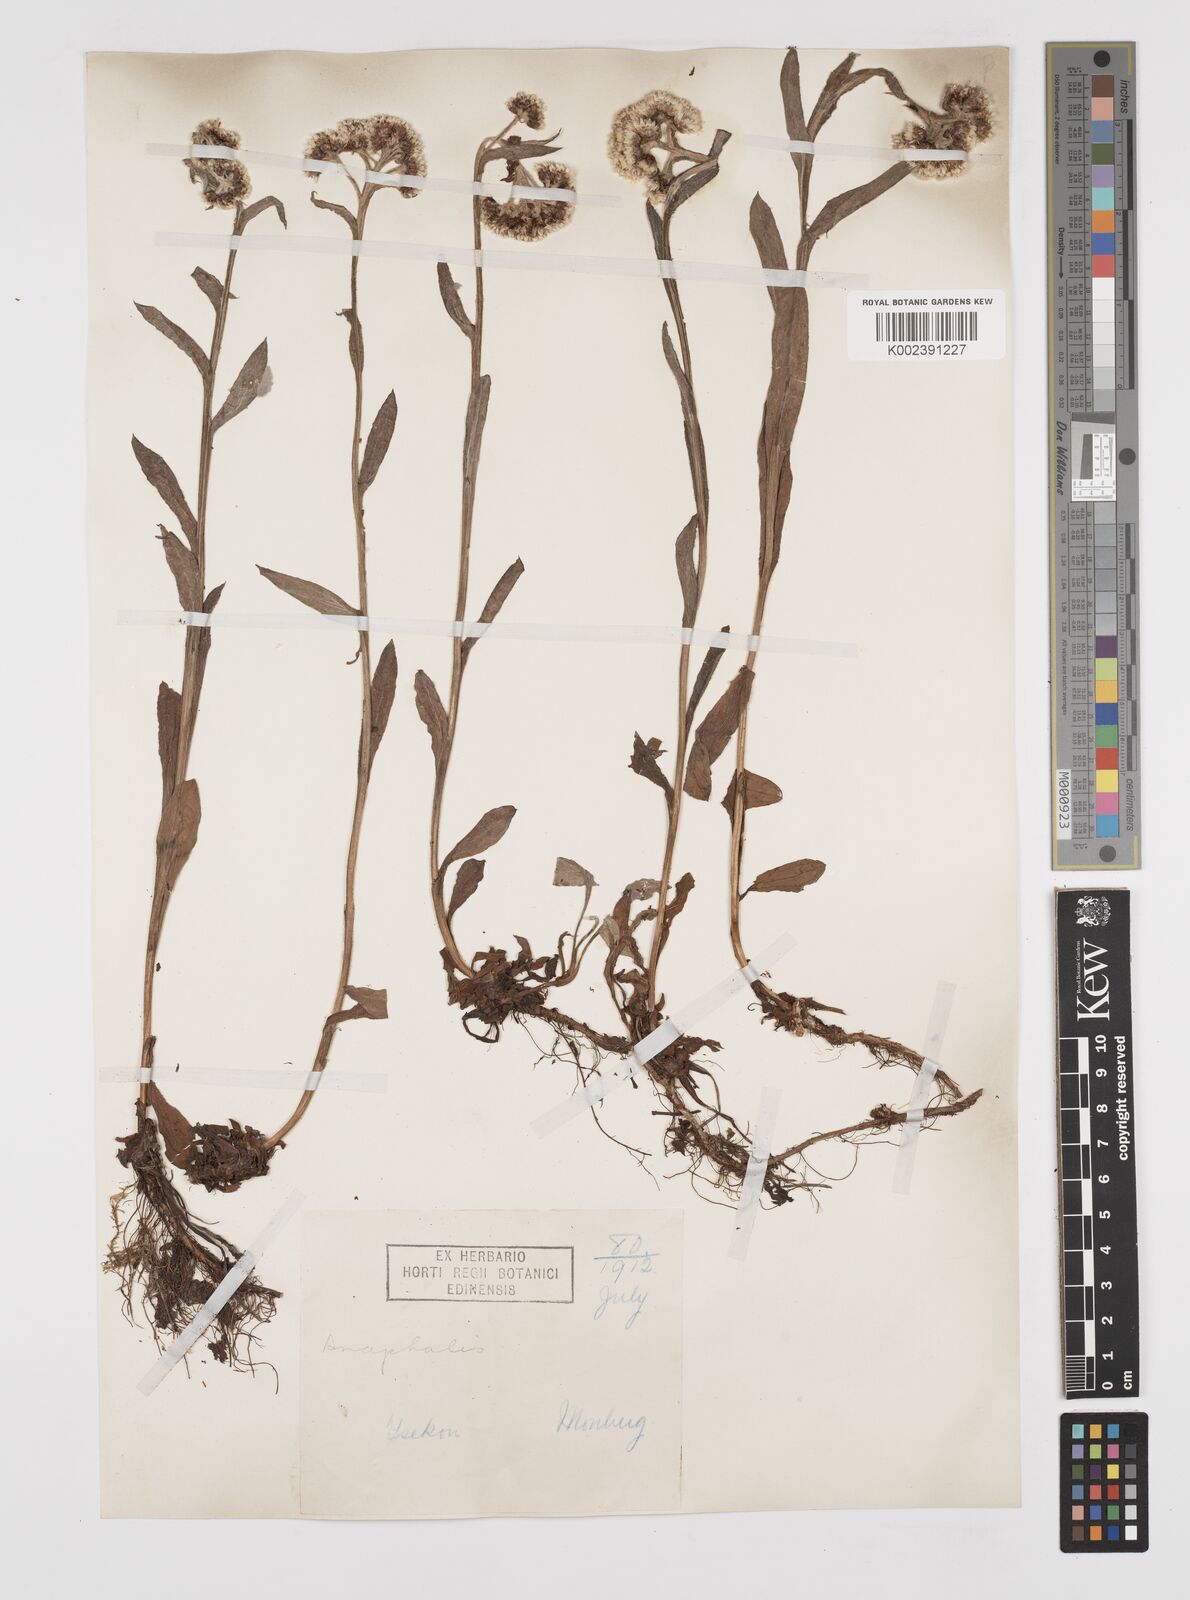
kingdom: Plantae
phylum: Tracheophyta
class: Magnoliopsida
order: Asterales
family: Asteraceae
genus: Anaphalis
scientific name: Anaphalis delavayi
